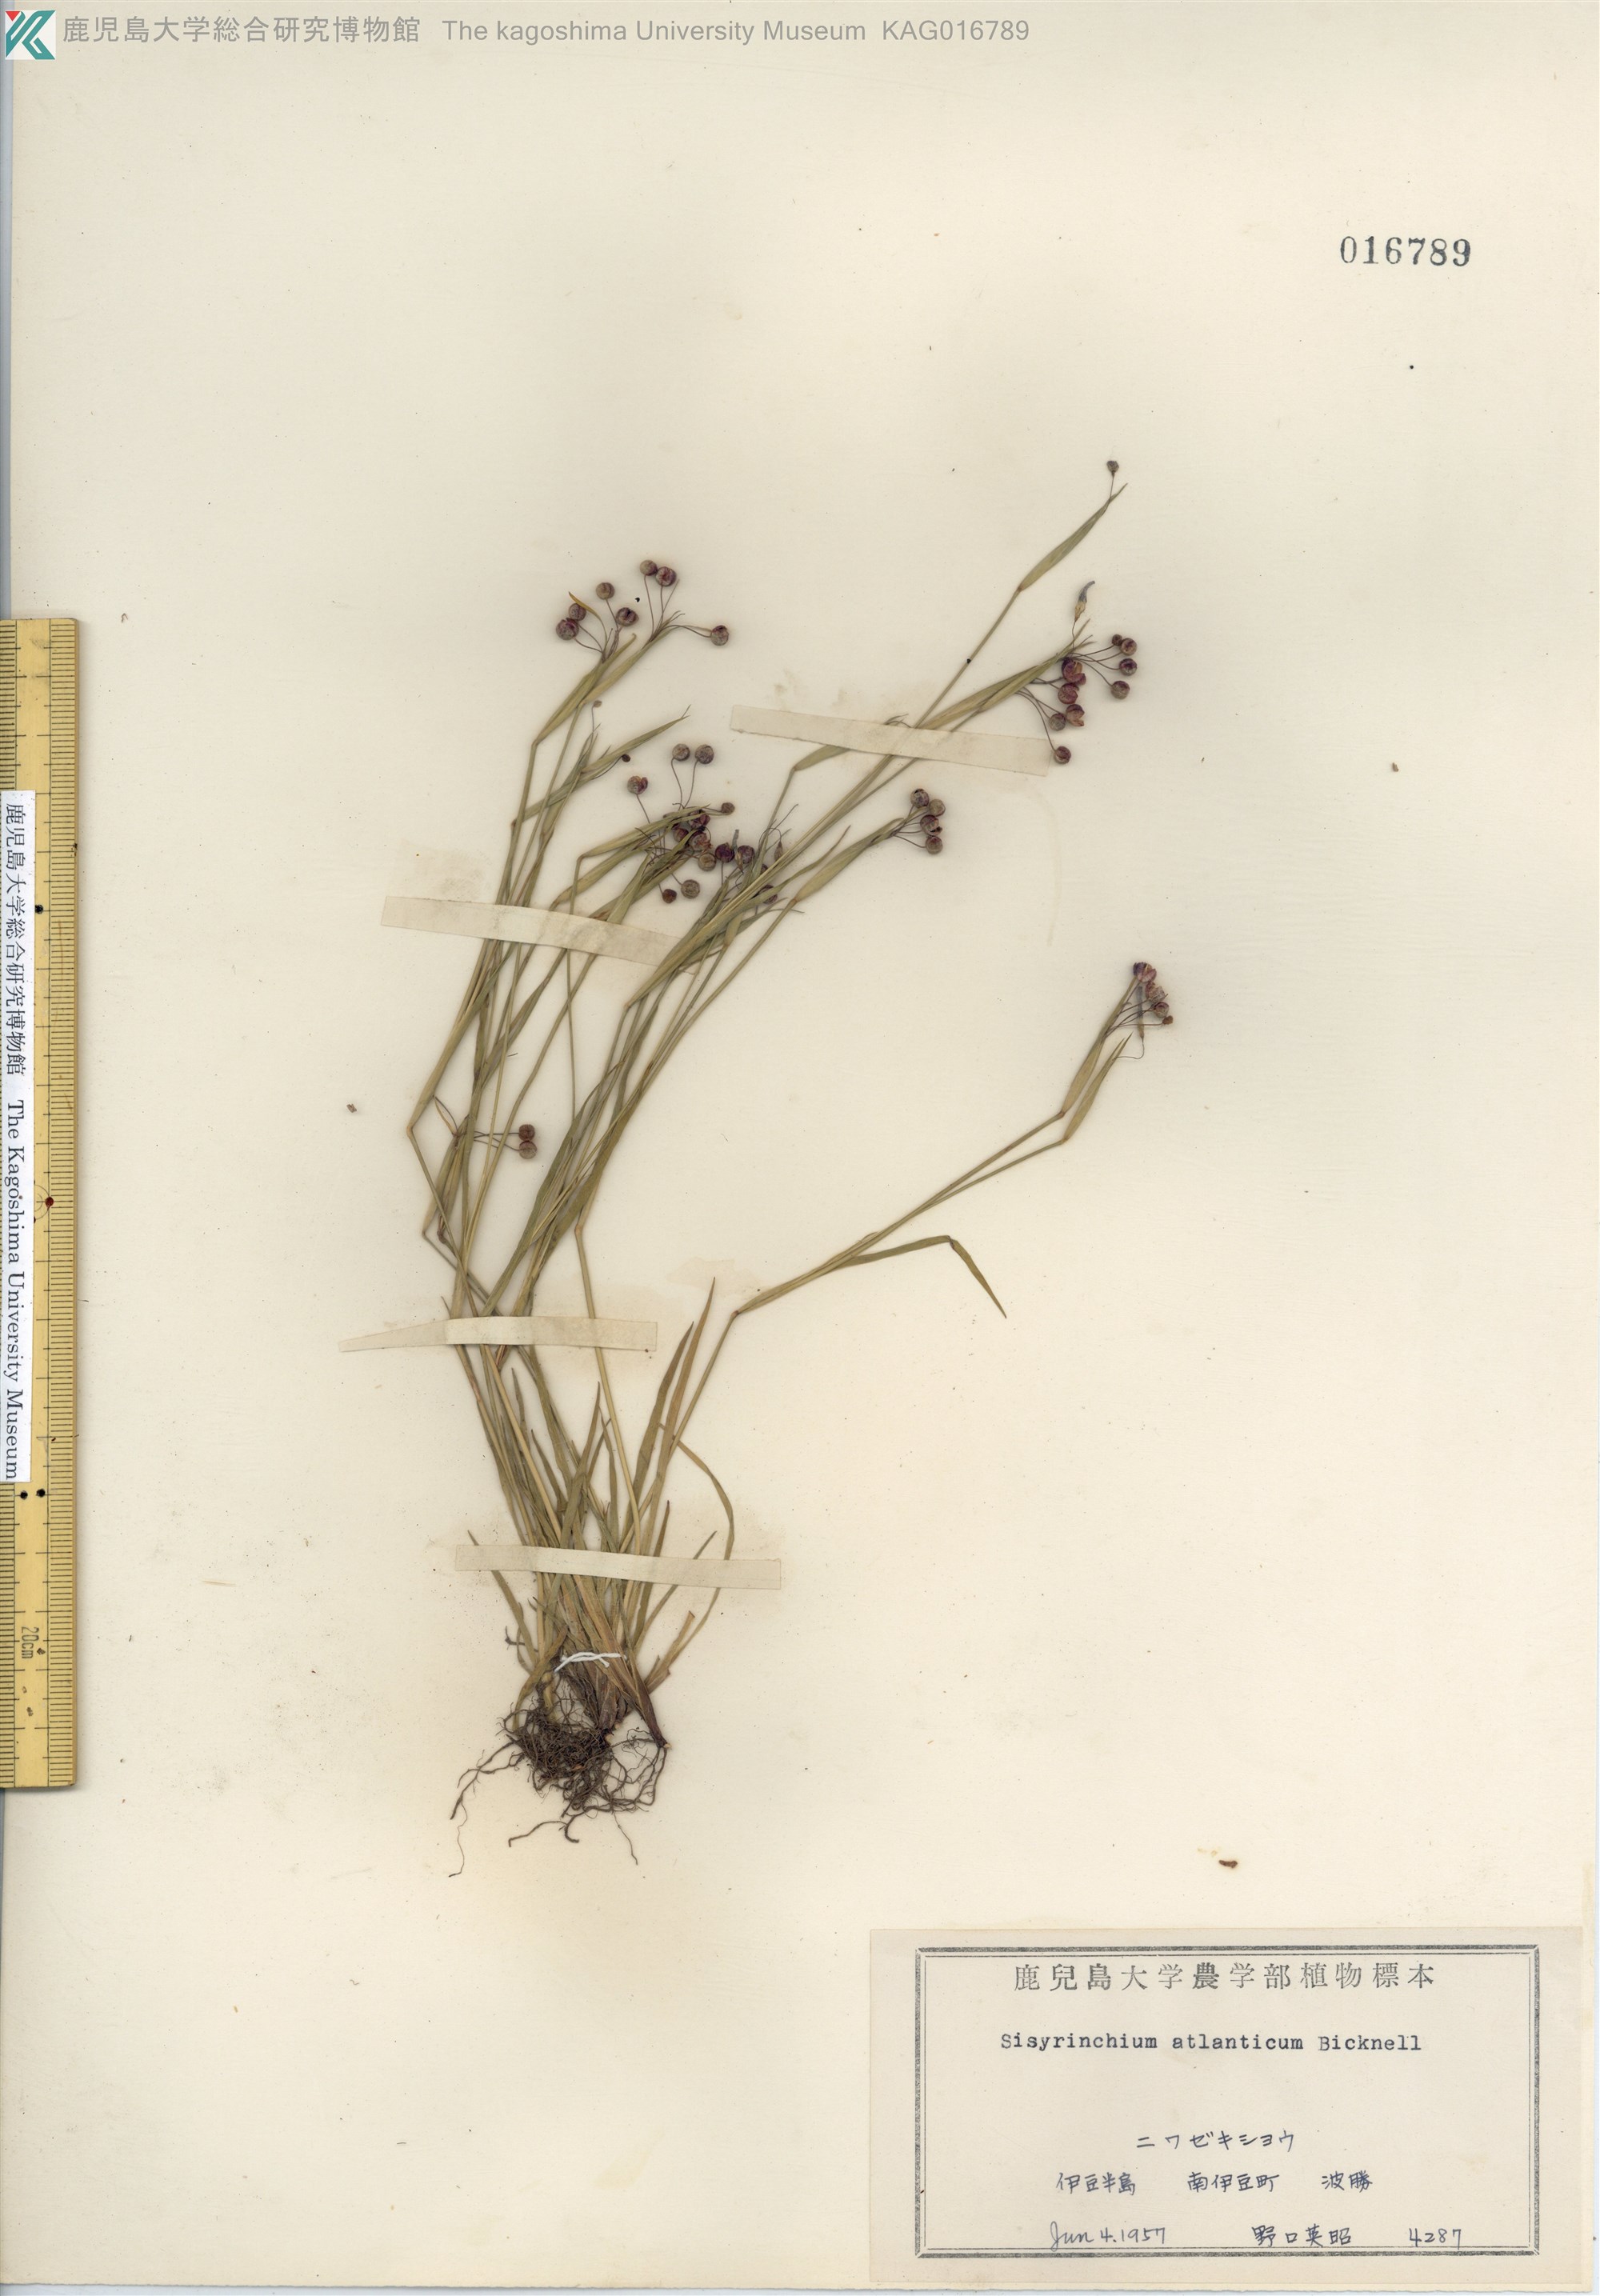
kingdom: Plantae
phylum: Tracheophyta
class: Liliopsida
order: Asparagales
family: Iridaceae
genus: Sisyrinchium
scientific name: Sisyrinchium rosulatum
